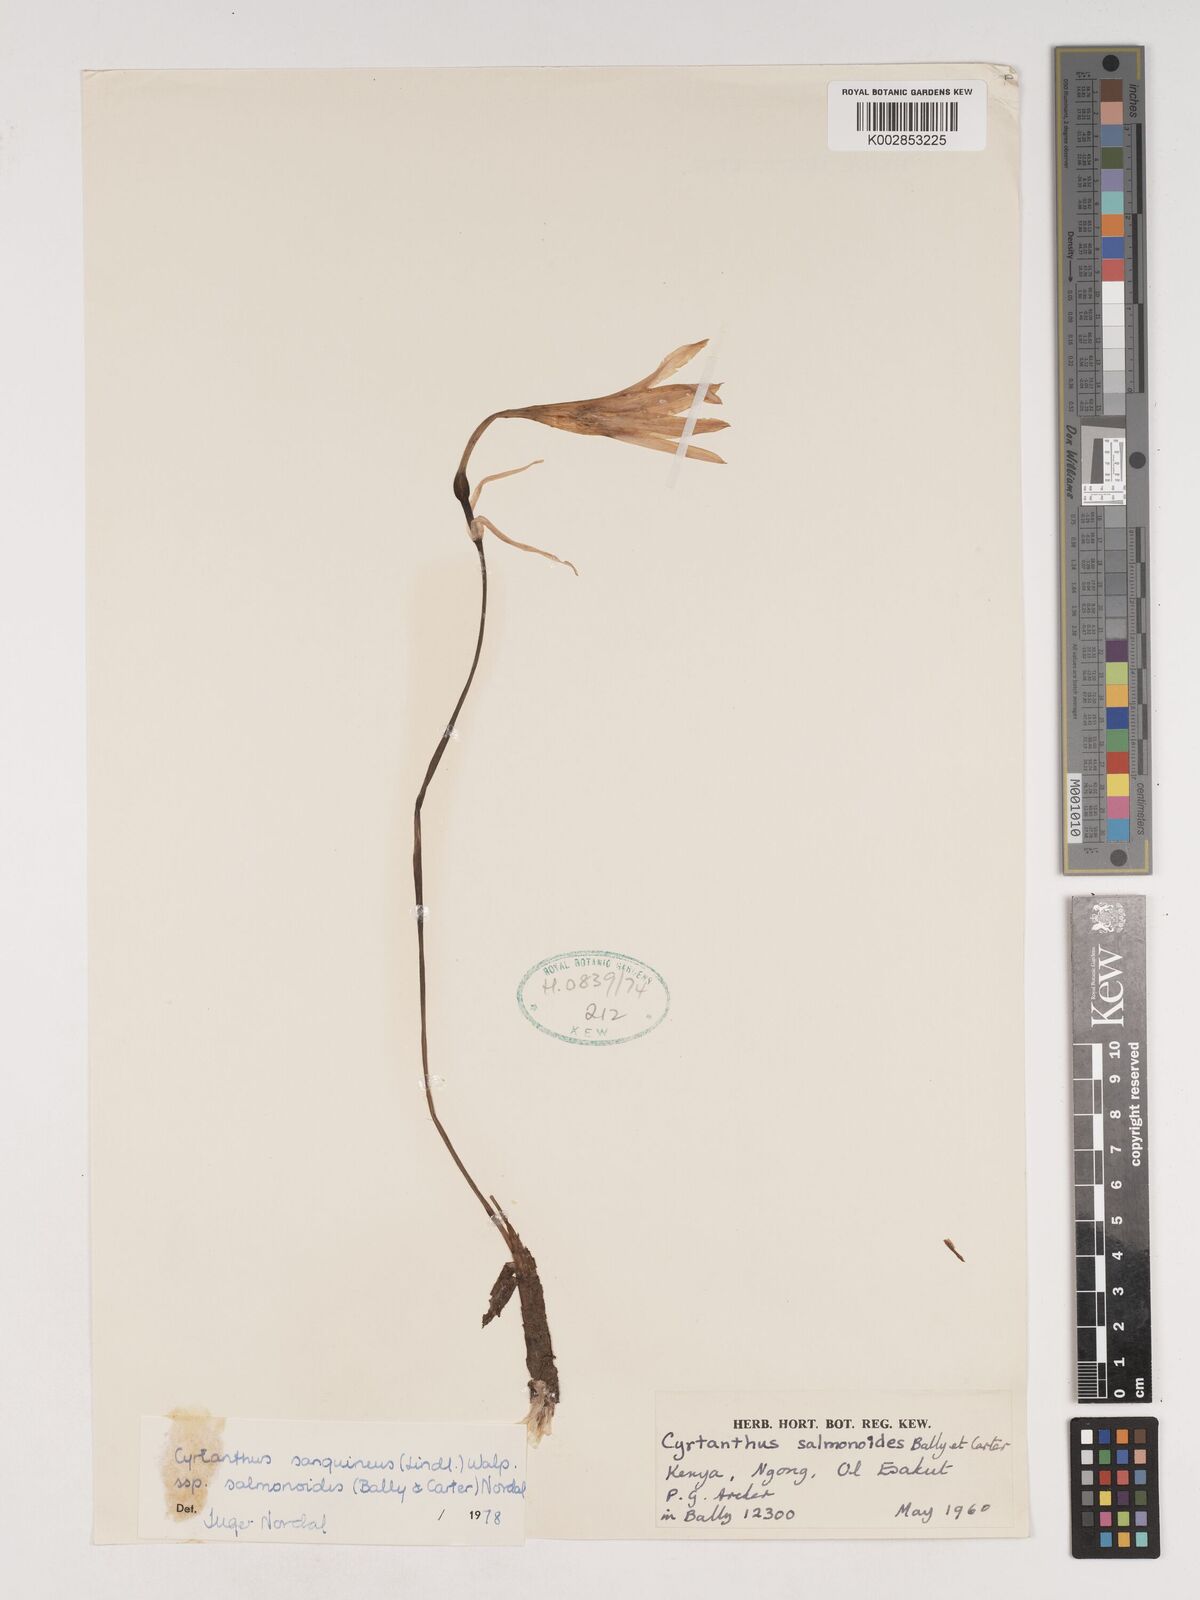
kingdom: Plantae
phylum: Tracheophyta
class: Liliopsida
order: Asparagales
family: Amaryllidaceae
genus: Cyrtanthus
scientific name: Cyrtanthus sanguineus
